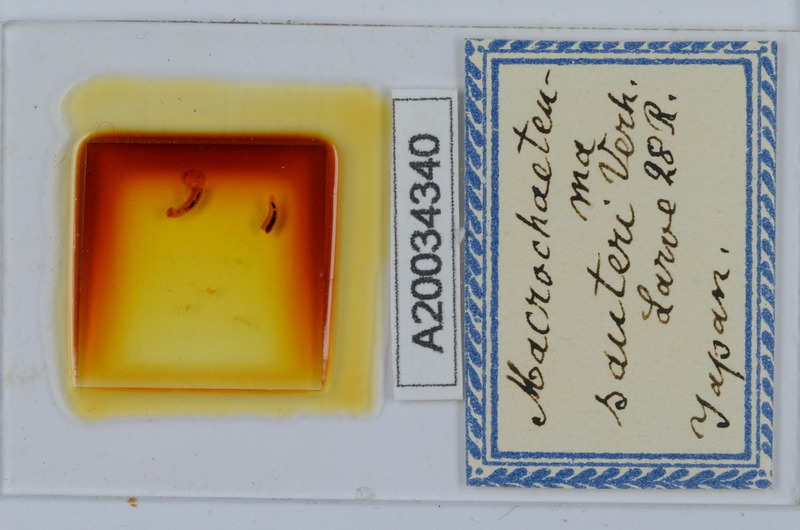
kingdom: Animalia
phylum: Arthropoda
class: Diplopoda
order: Chordeumatida
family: Macrochaeteumatidae
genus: Macrochaeteuma
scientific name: Macrochaeteuma sauteri
